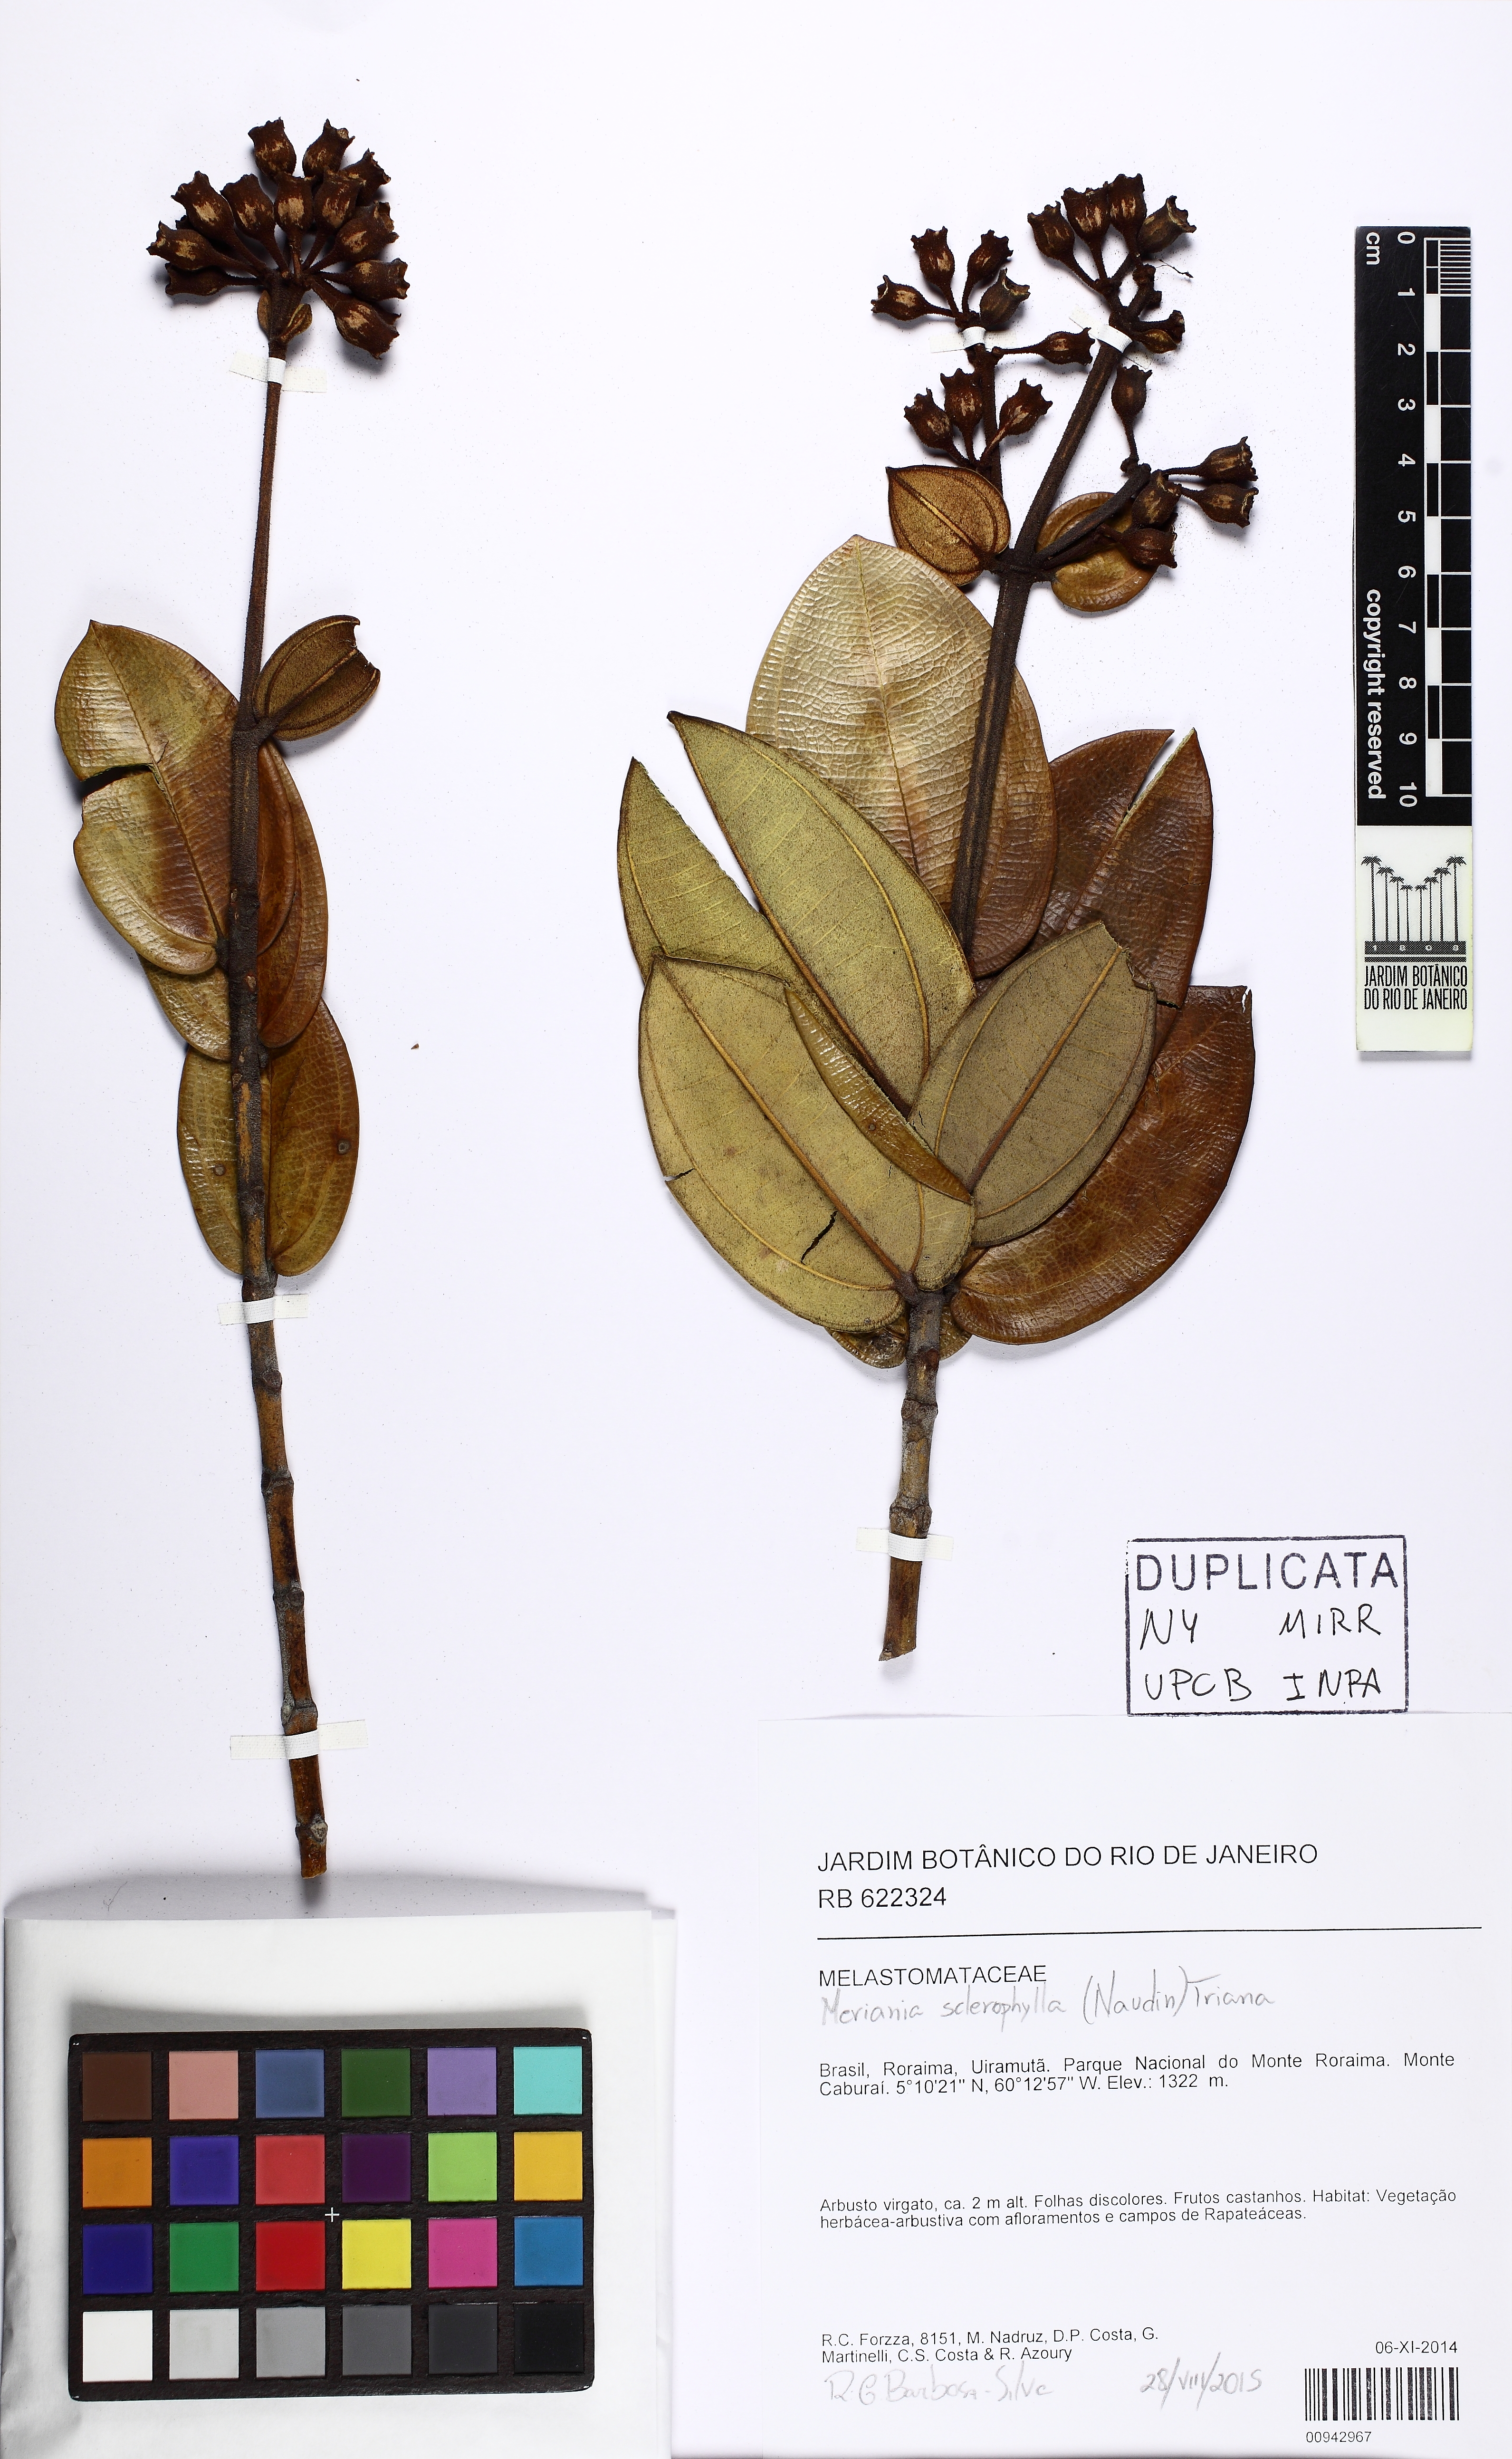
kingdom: Plantae
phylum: Tracheophyta
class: Magnoliopsida
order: Myrtales
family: Melastomataceae
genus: Meriania
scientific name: Meriania sclerophylla
